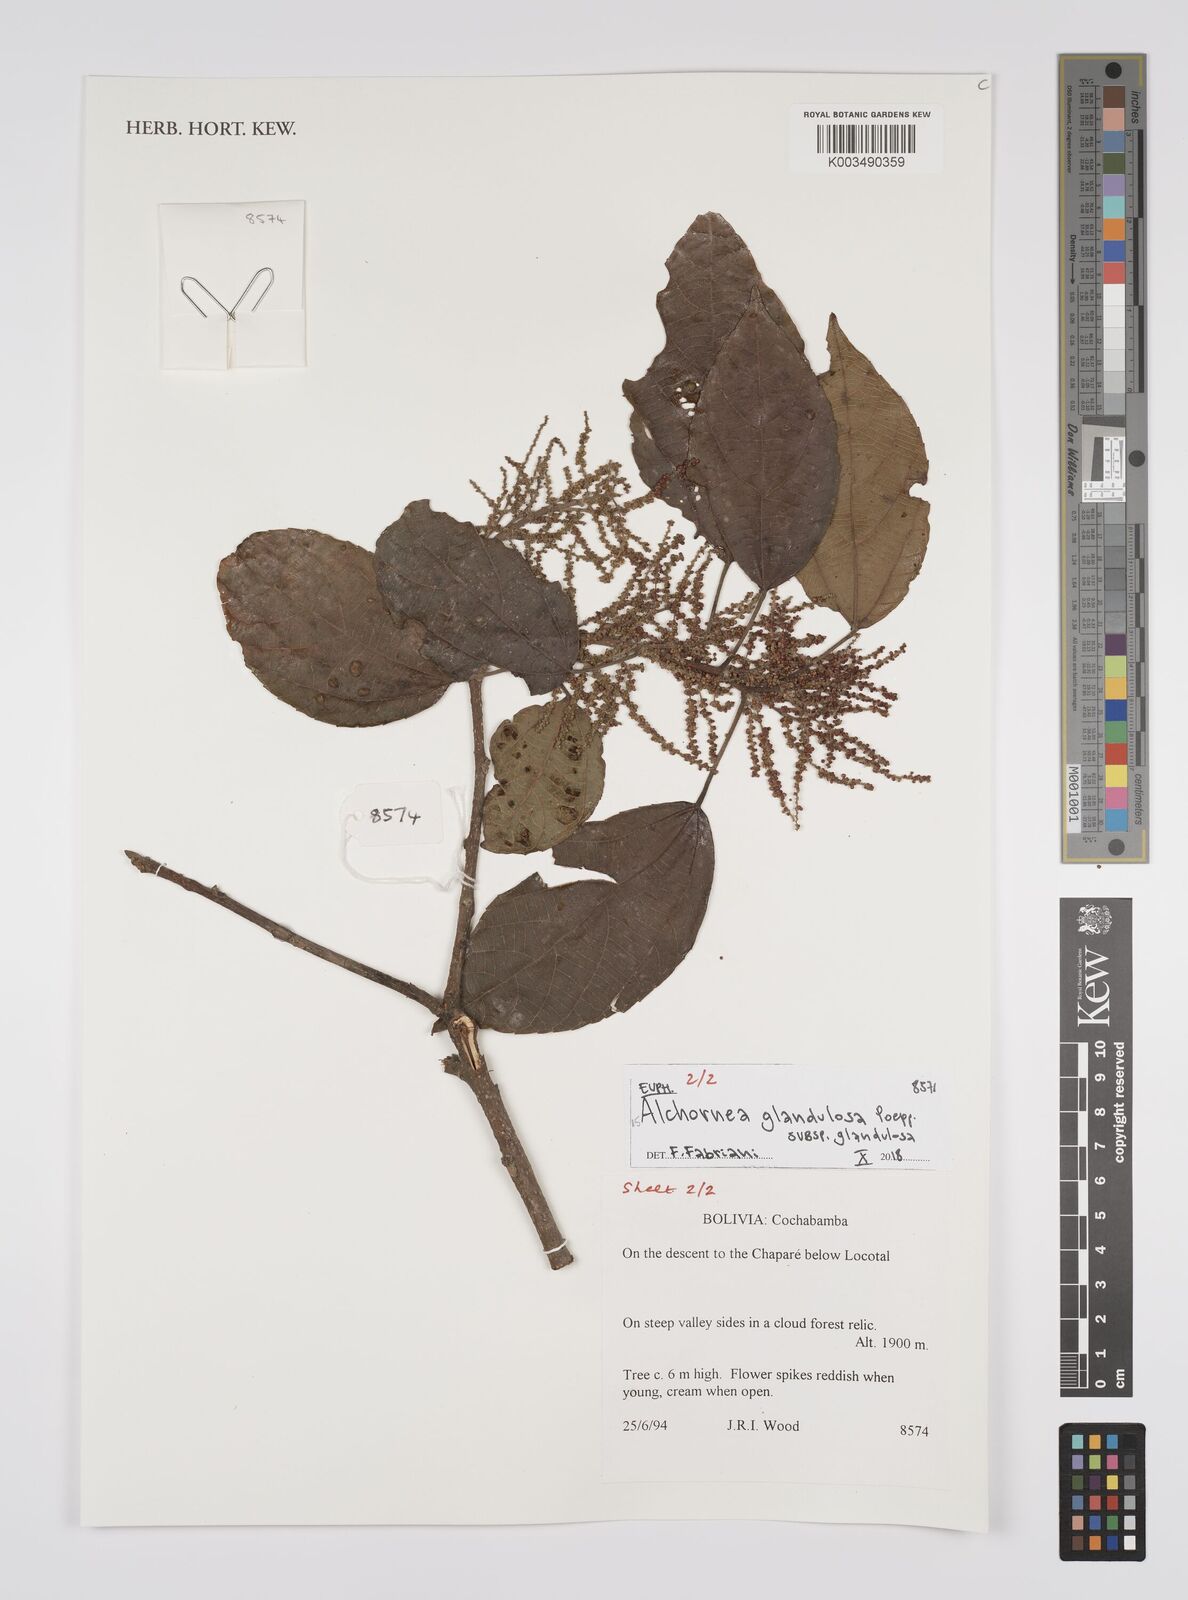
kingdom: Plantae
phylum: Tracheophyta
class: Magnoliopsida
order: Malpighiales
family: Euphorbiaceae
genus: Alchornea
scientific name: Alchornea glandulosa
